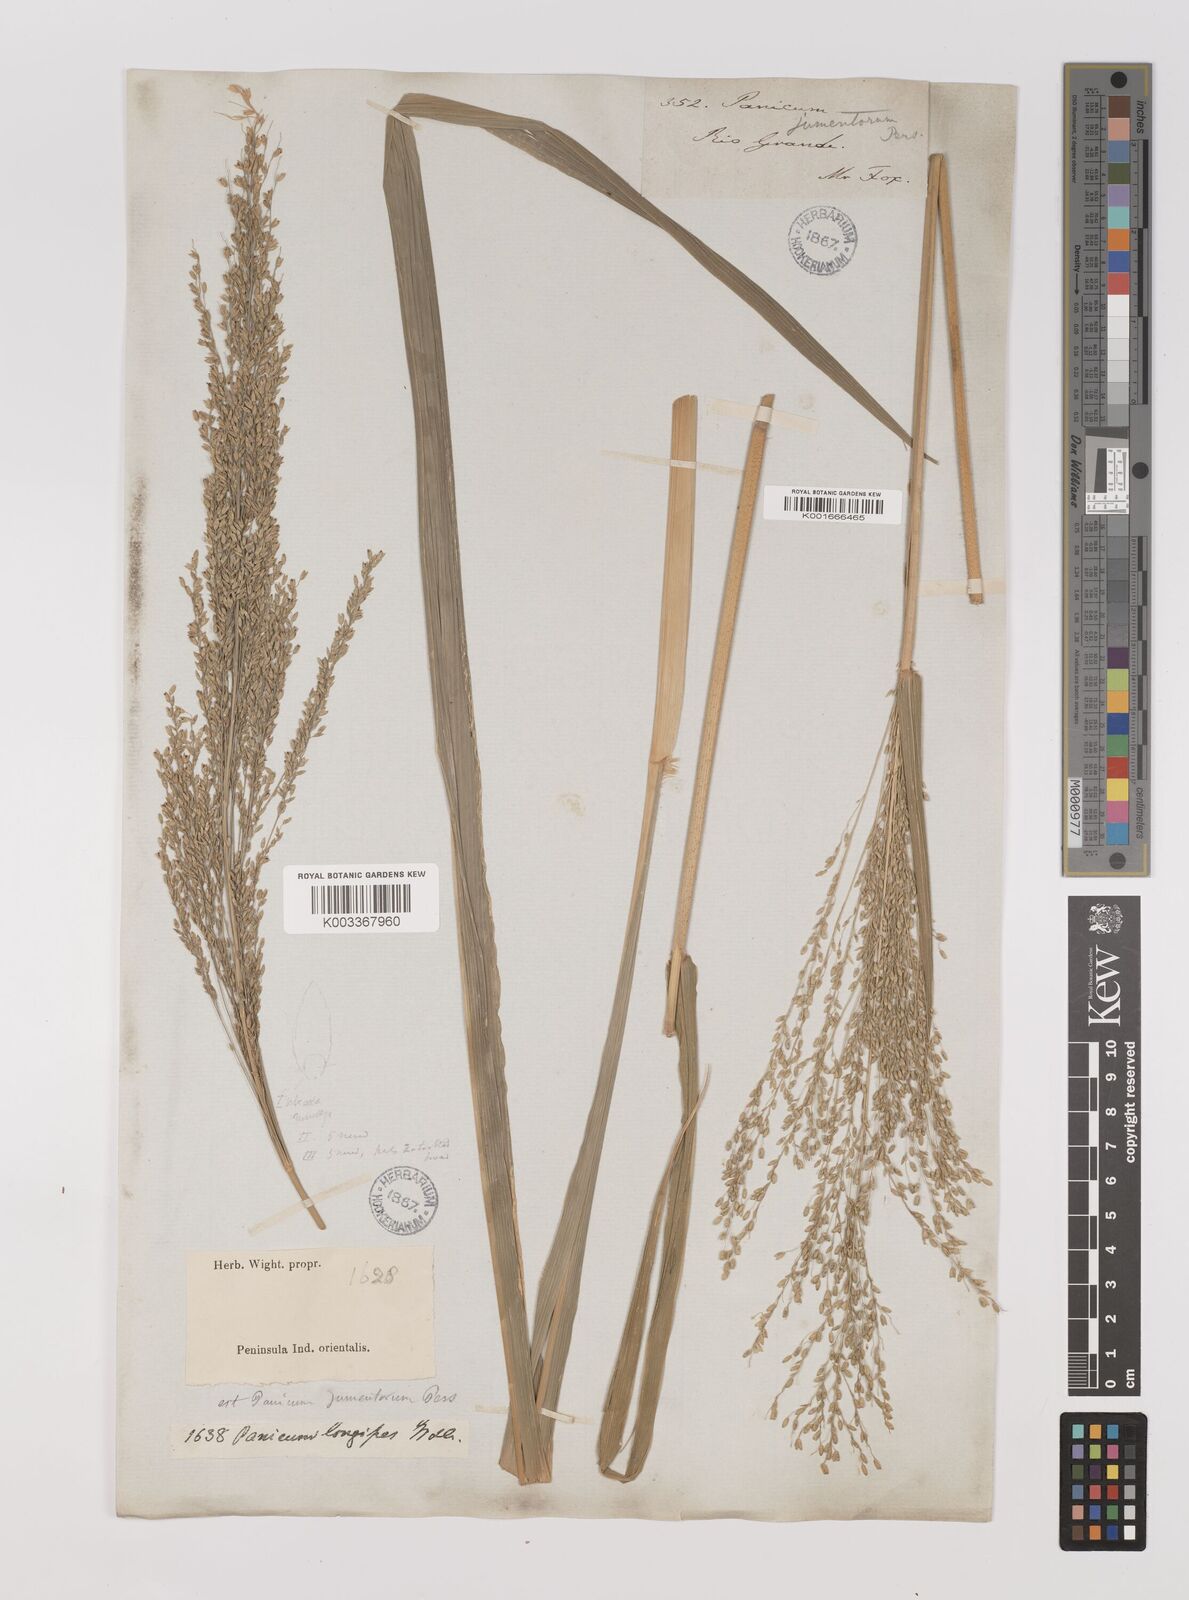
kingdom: Plantae
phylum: Tracheophyta
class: Liliopsida
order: Poales
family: Poaceae
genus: Megathyrsus
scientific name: Megathyrsus maximus
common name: Guineagrass
